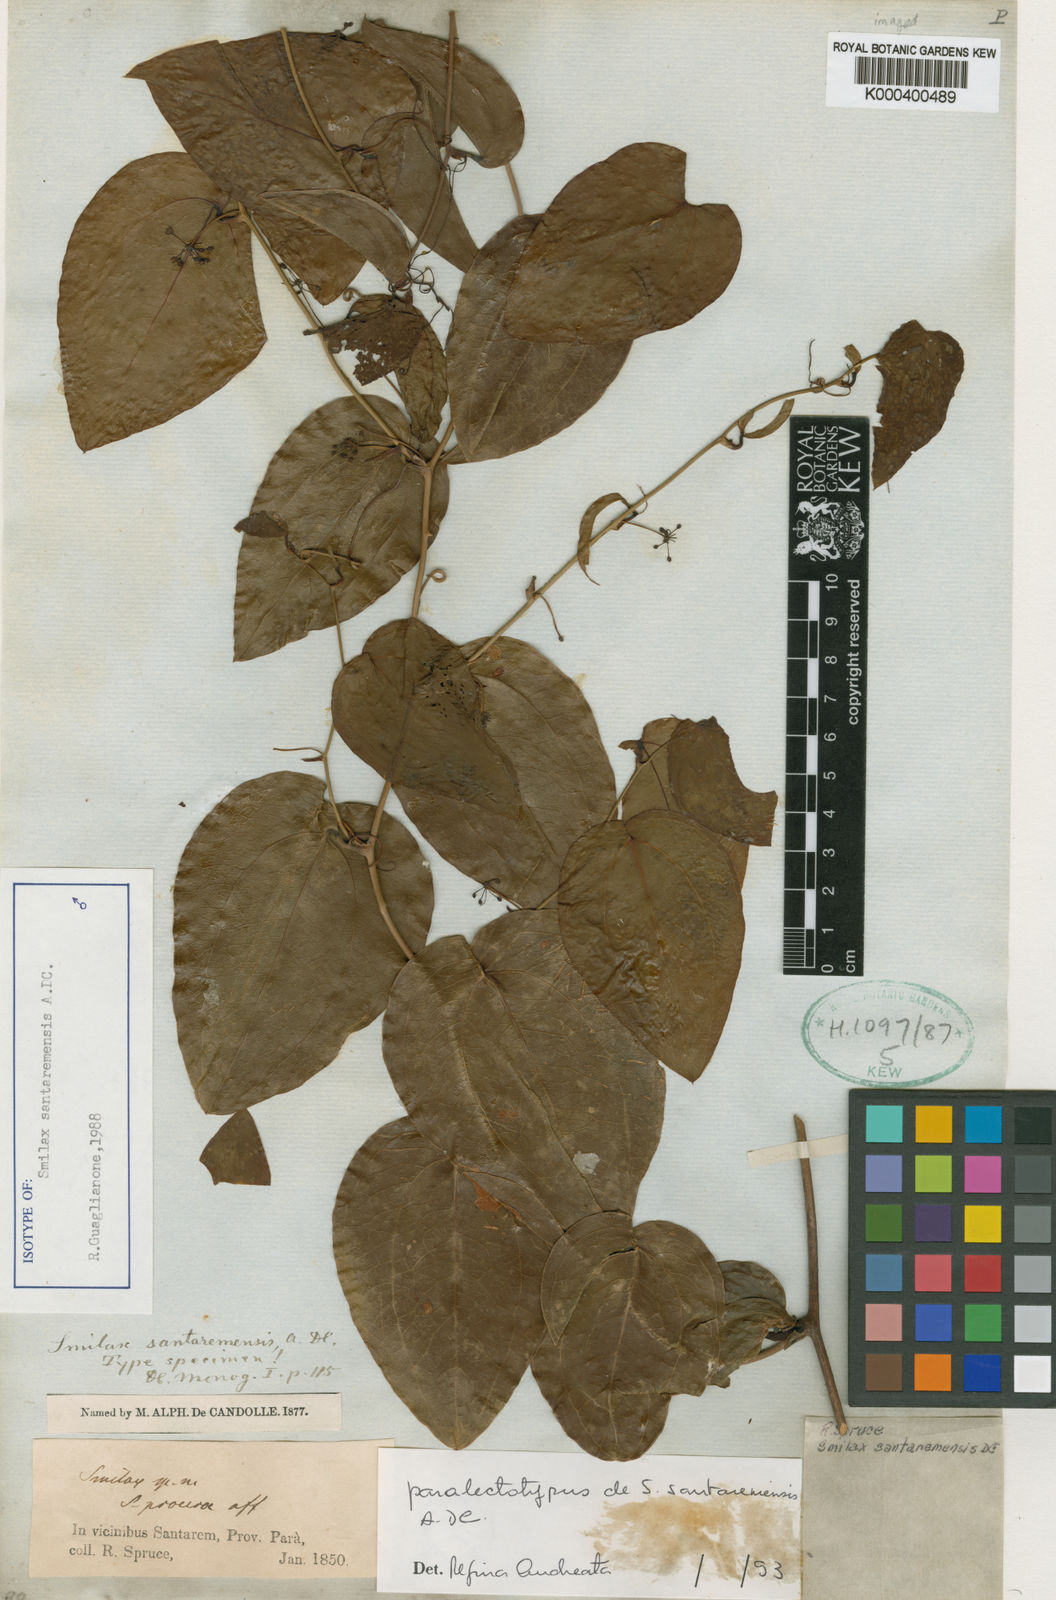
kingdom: Plantae
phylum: Tracheophyta
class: Liliopsida
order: Liliales
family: Smilacaceae
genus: Smilax
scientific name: Smilax santaremensis
